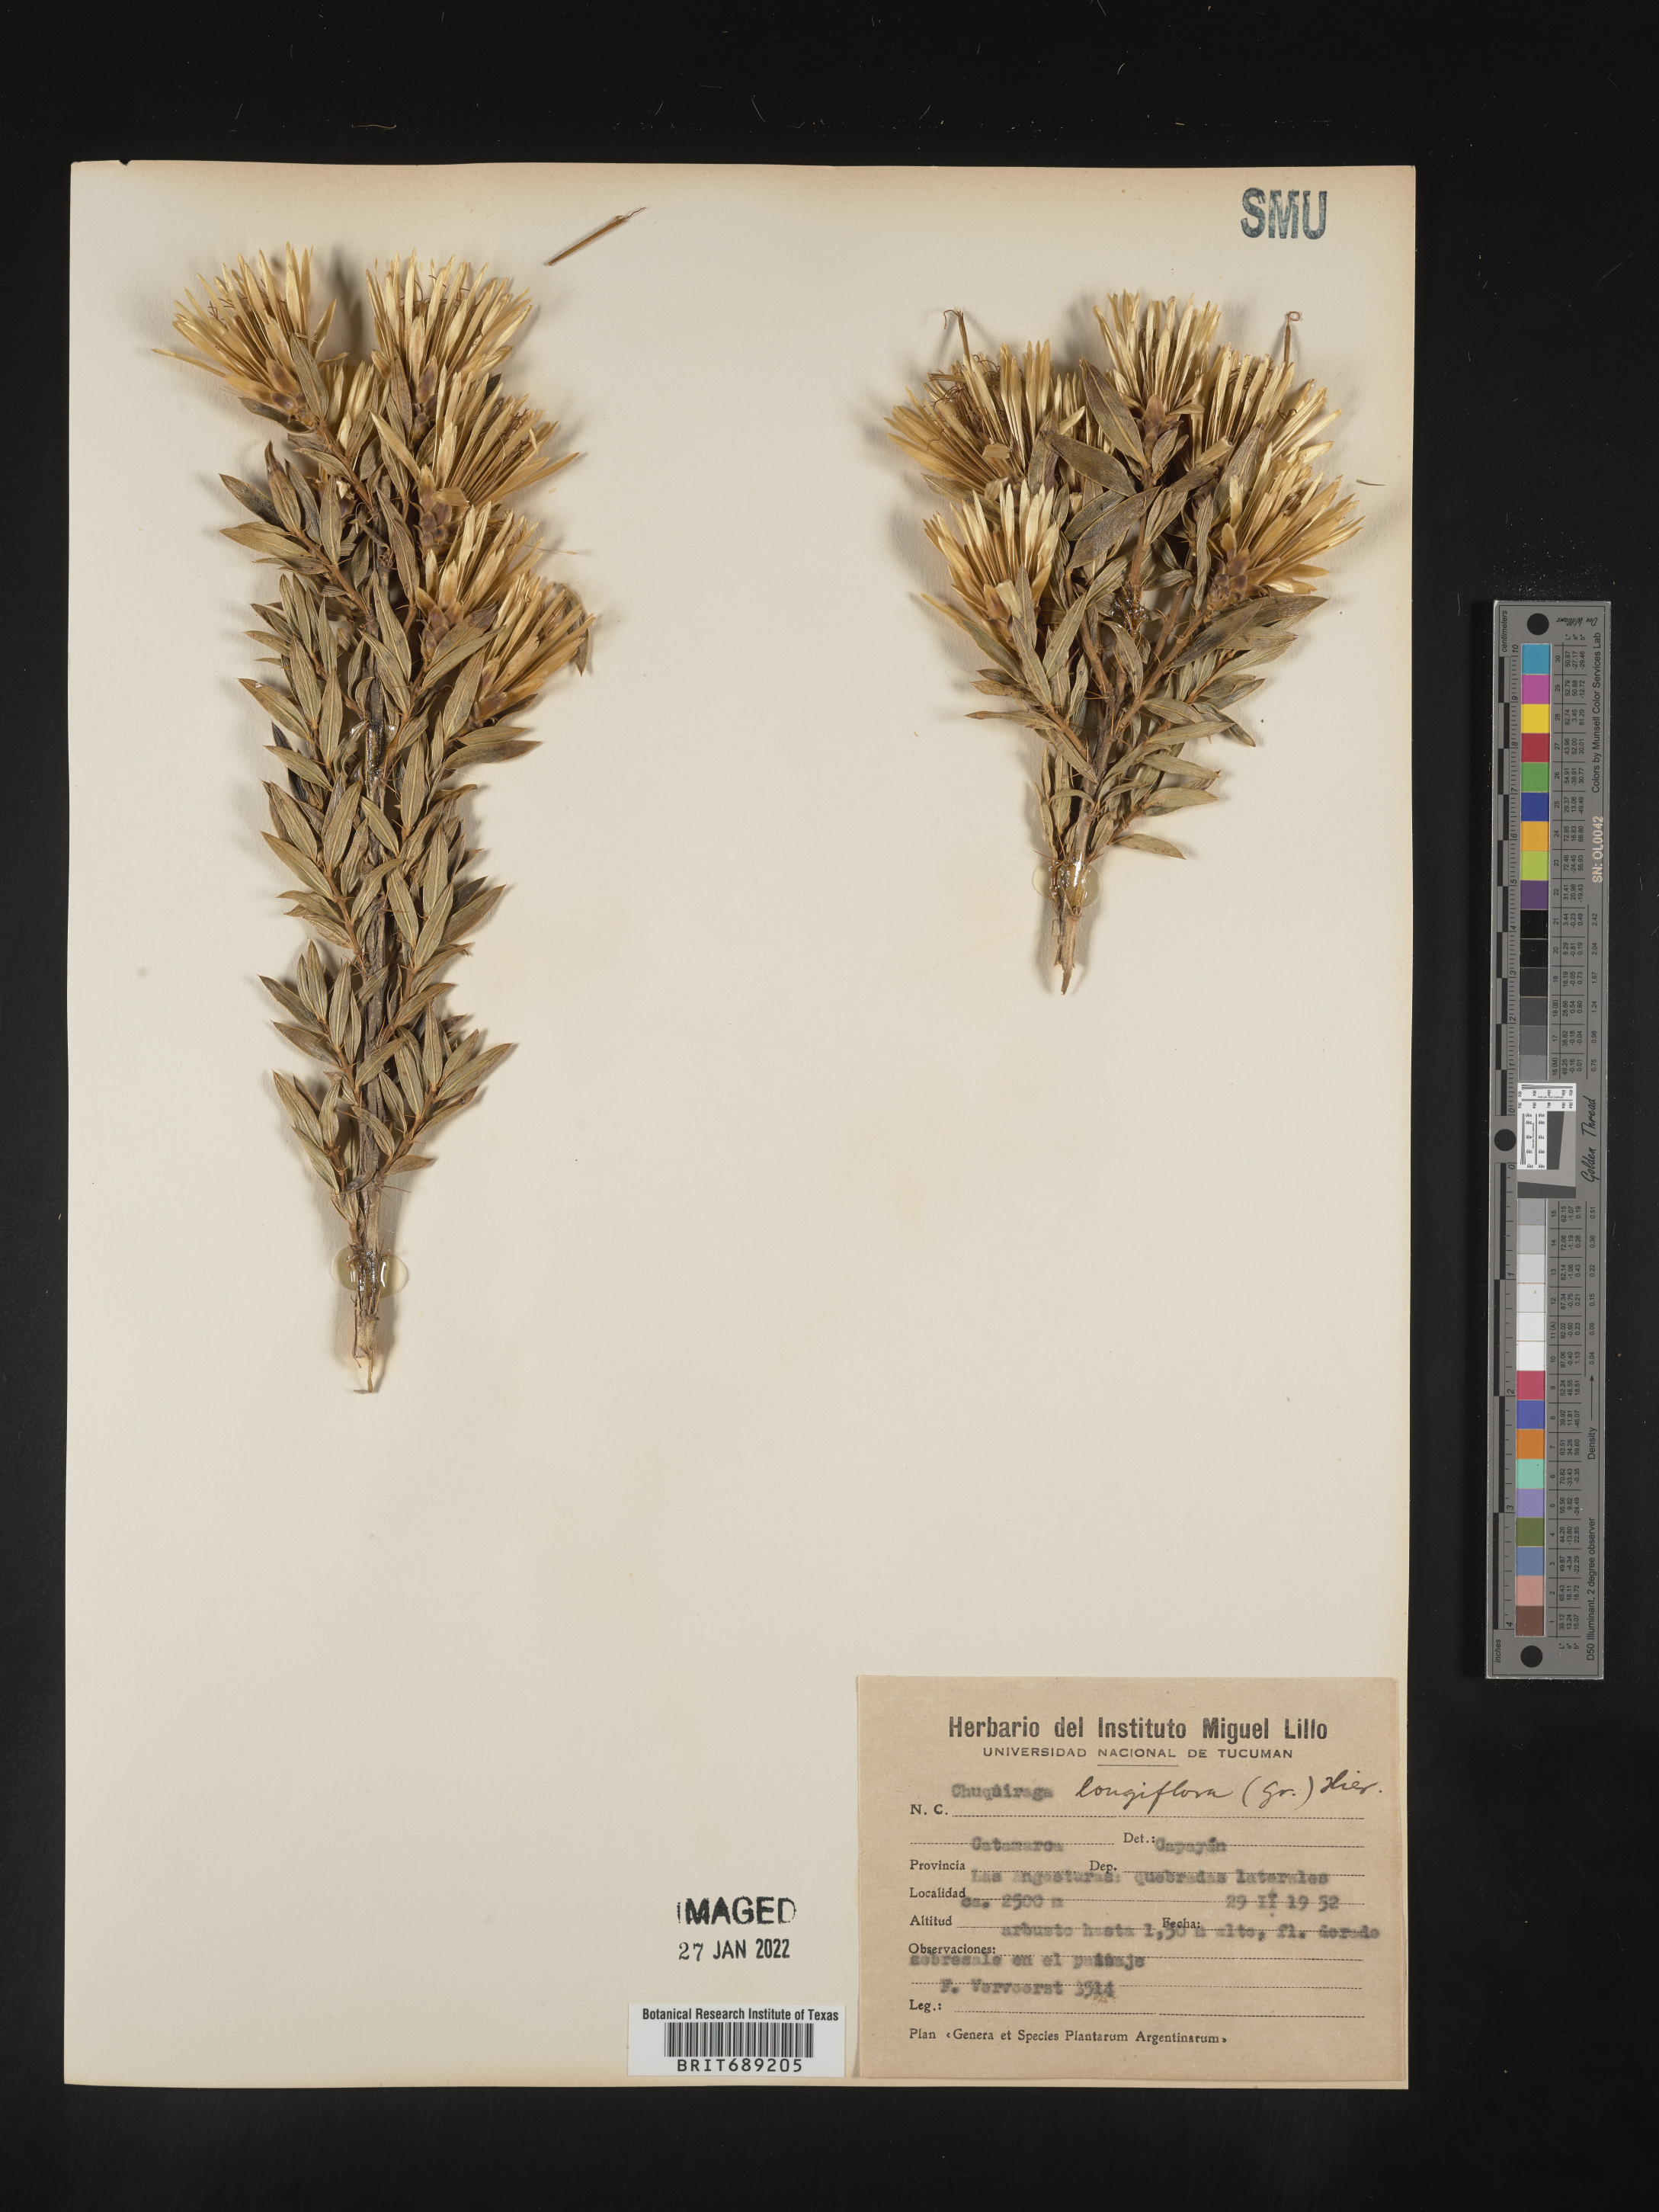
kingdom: Plantae
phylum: Tracheophyta
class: Magnoliopsida
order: Asterales
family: Asteraceae
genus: Chuquiraga
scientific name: Chuquiraga
